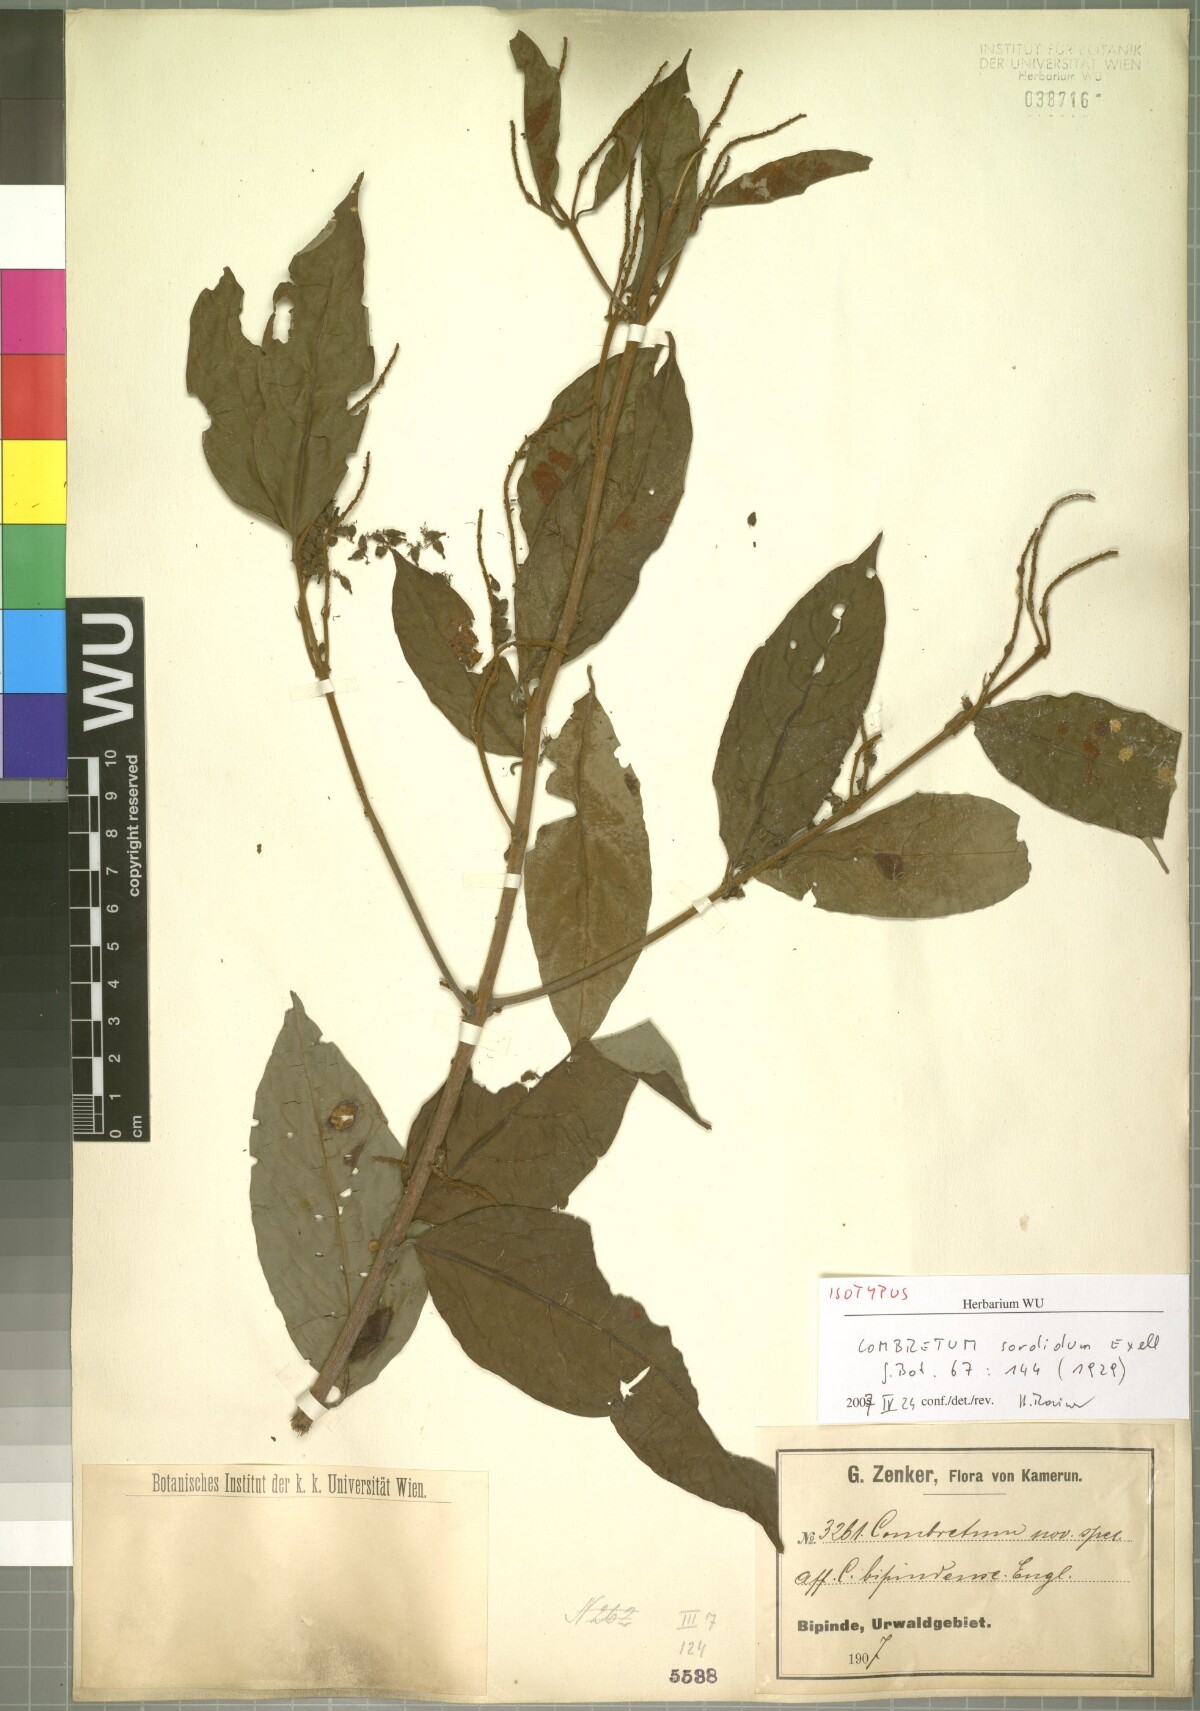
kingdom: Plantae
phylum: Tracheophyta
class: Magnoliopsida
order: Myrtales
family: Combretaceae
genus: Combretum
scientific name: Combretum sordidum
